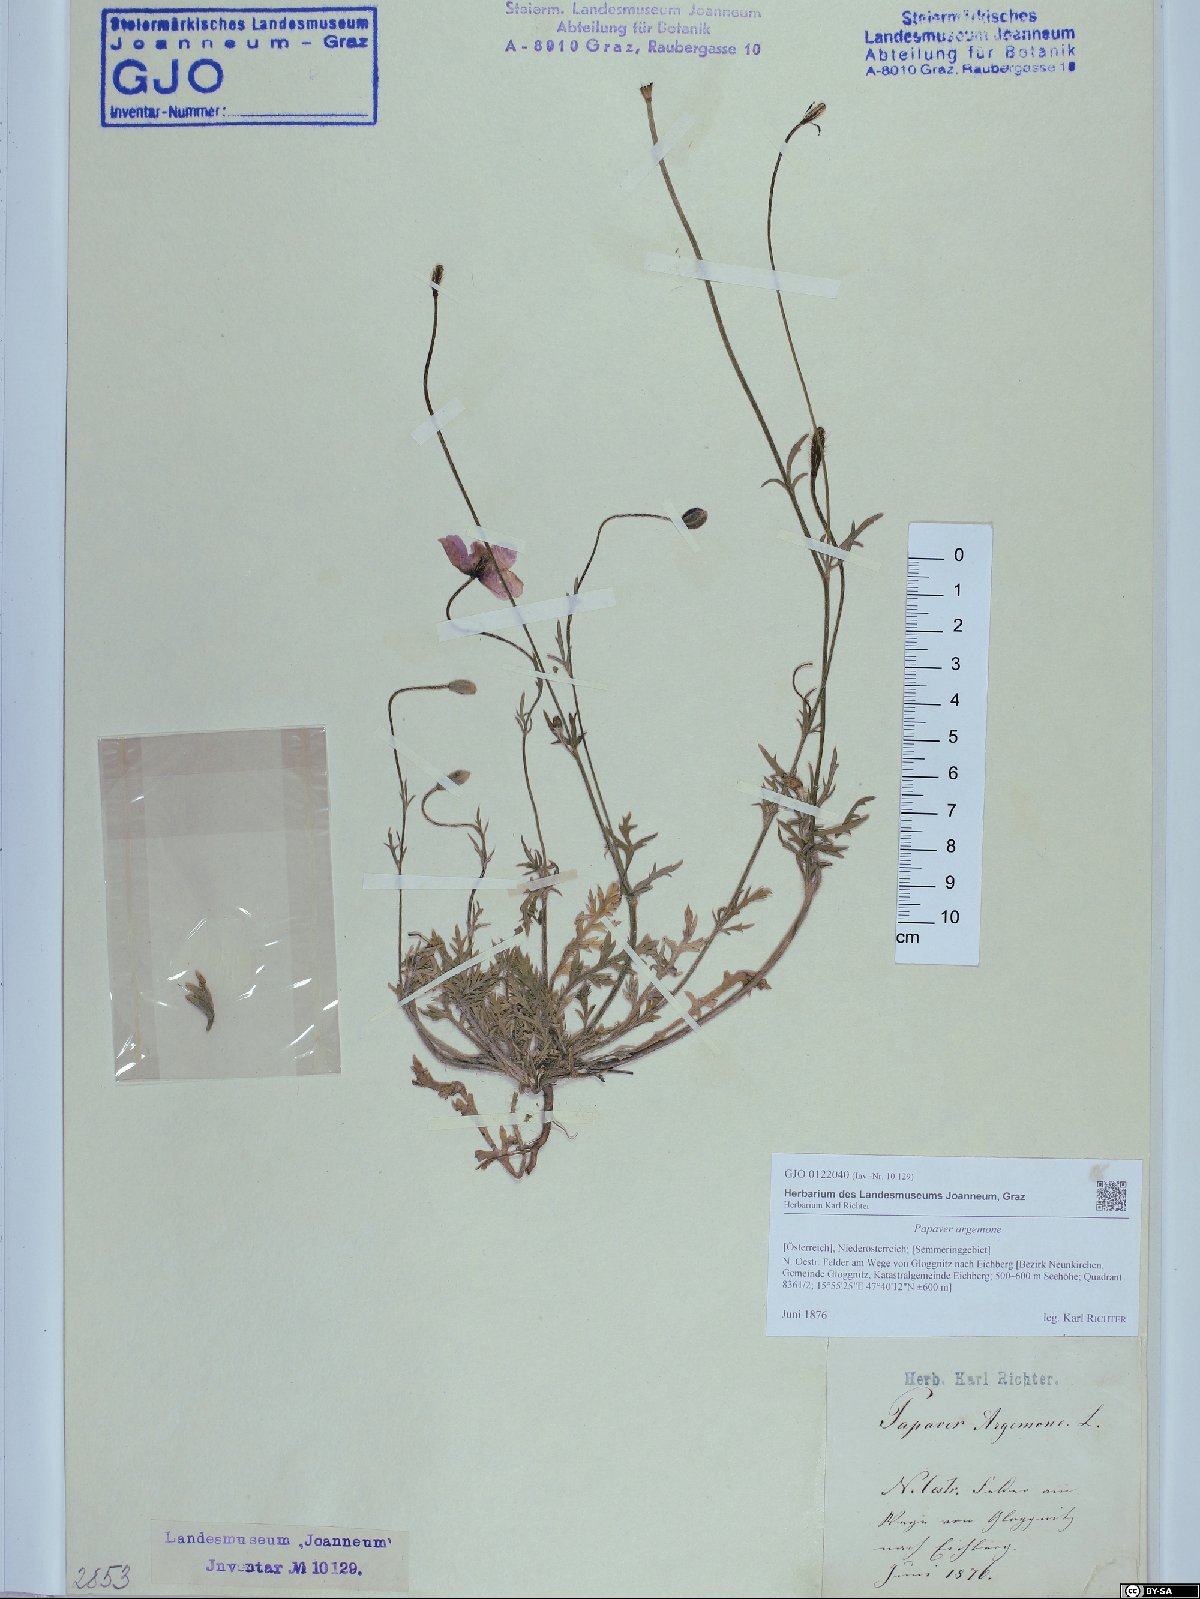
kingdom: Plantae
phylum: Tracheophyta
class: Magnoliopsida
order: Ranunculales
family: Papaveraceae
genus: Roemeria
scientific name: Roemeria argemone
